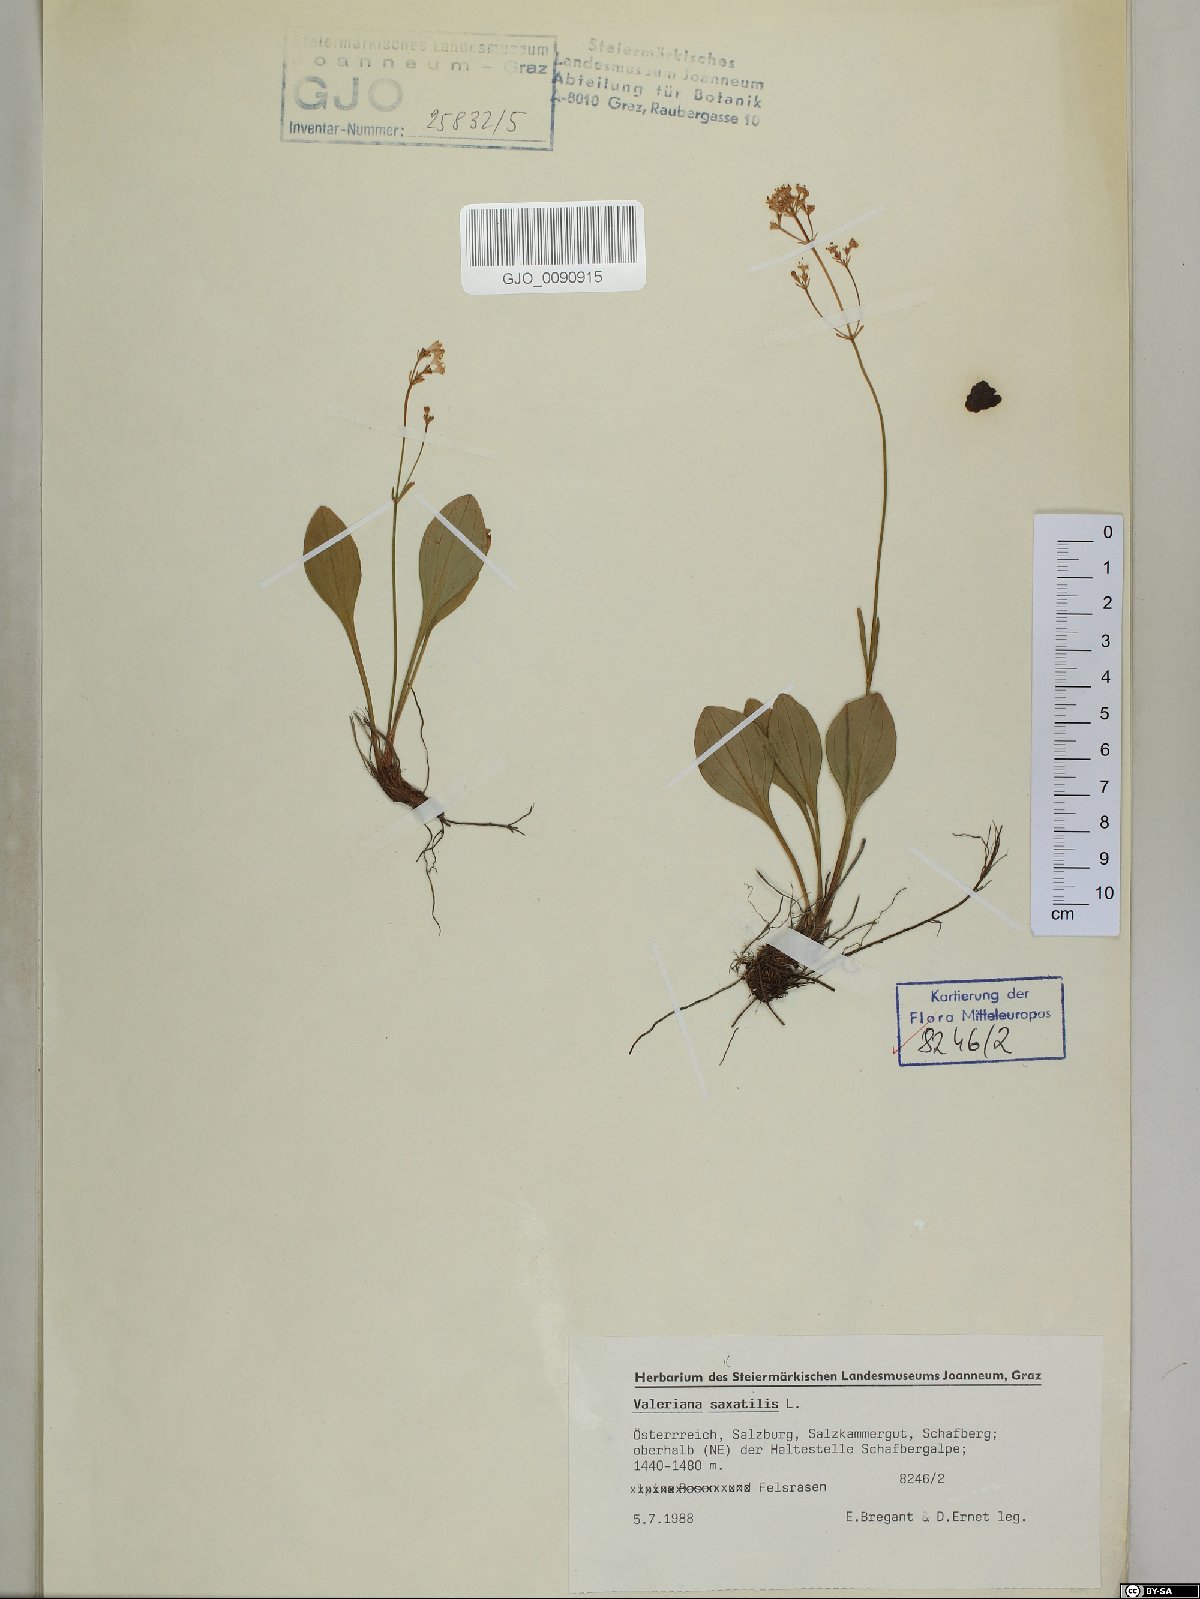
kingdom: Plantae
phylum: Tracheophyta
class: Magnoliopsida
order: Dipsacales
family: Caprifoliaceae
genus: Valeriana
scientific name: Valeriana saxatilis
